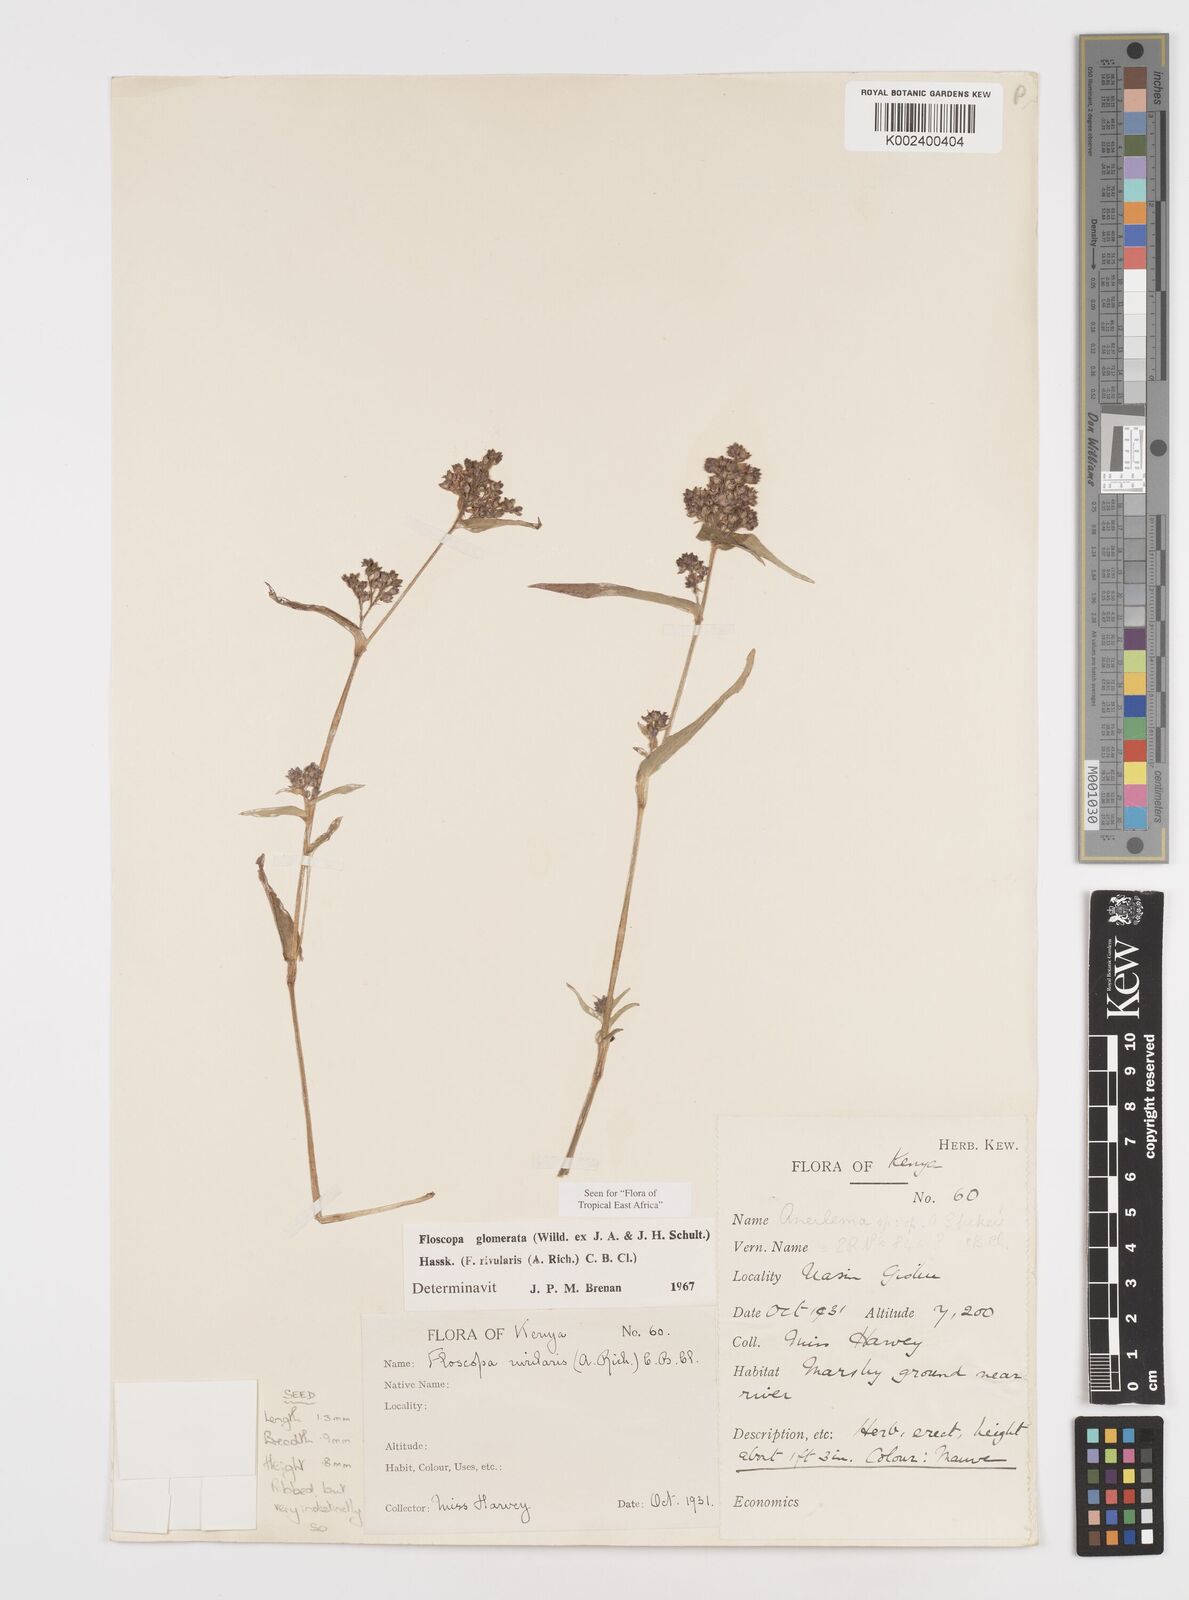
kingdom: Plantae
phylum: Tracheophyta
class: Liliopsida
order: Commelinales
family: Commelinaceae
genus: Floscopa
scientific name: Floscopa glomerata
